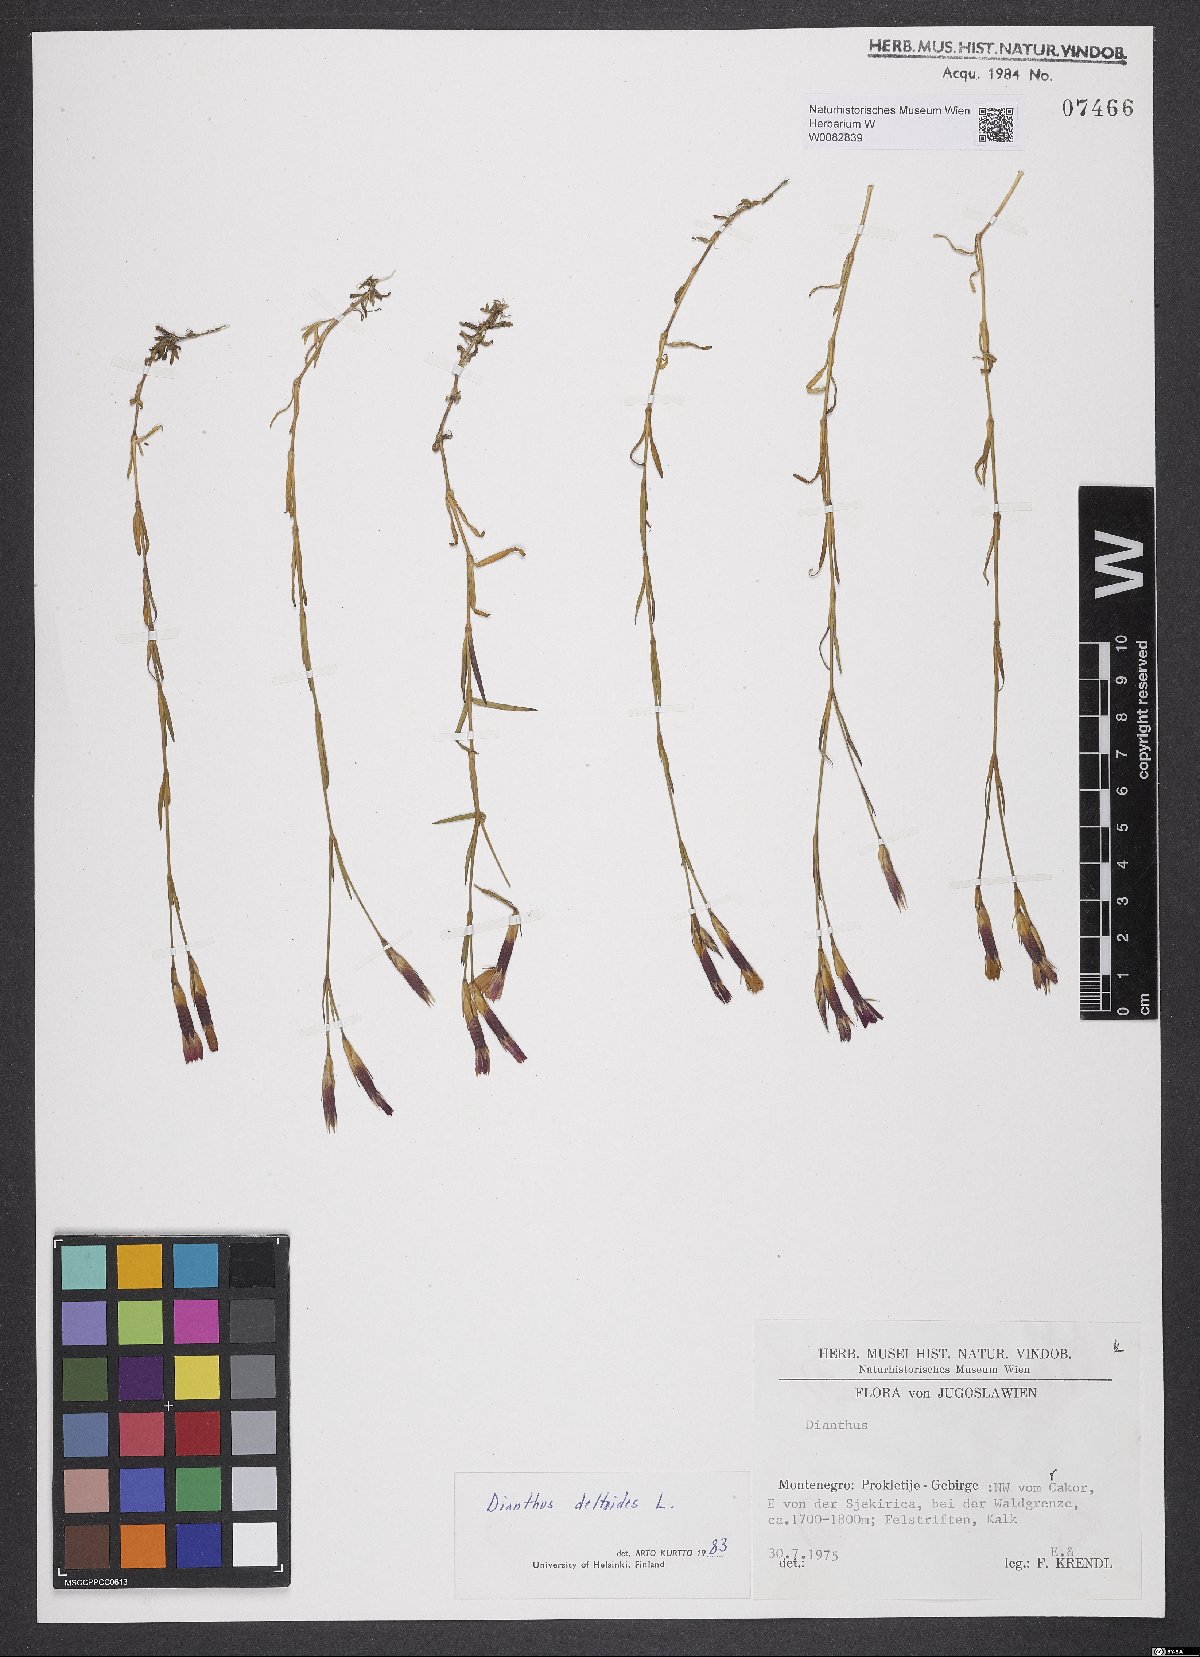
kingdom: Plantae
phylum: Tracheophyta
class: Magnoliopsida
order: Caryophyllales
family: Caryophyllaceae
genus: Dianthus
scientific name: Dianthus deltoides
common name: Maiden pink
